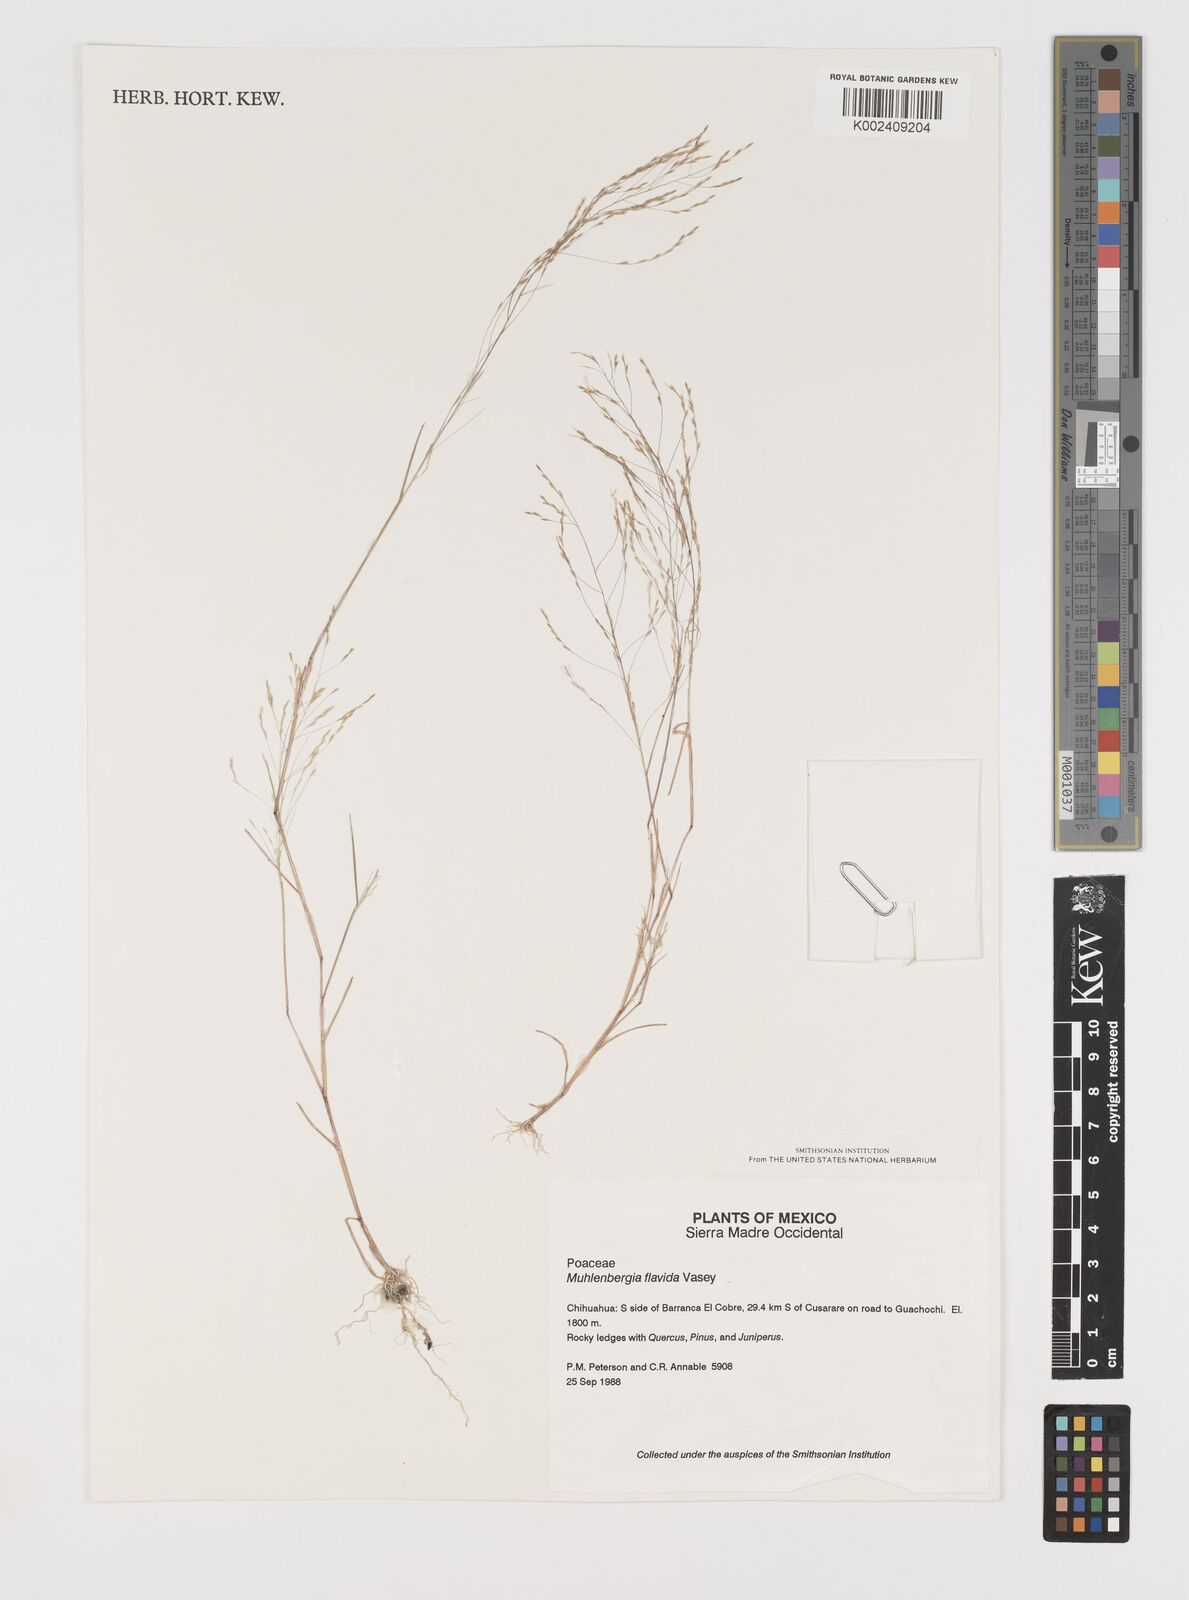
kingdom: Plantae
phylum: Tracheophyta
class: Liliopsida
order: Poales
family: Poaceae
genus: Muhlenbergia
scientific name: Muhlenbergia flavida
